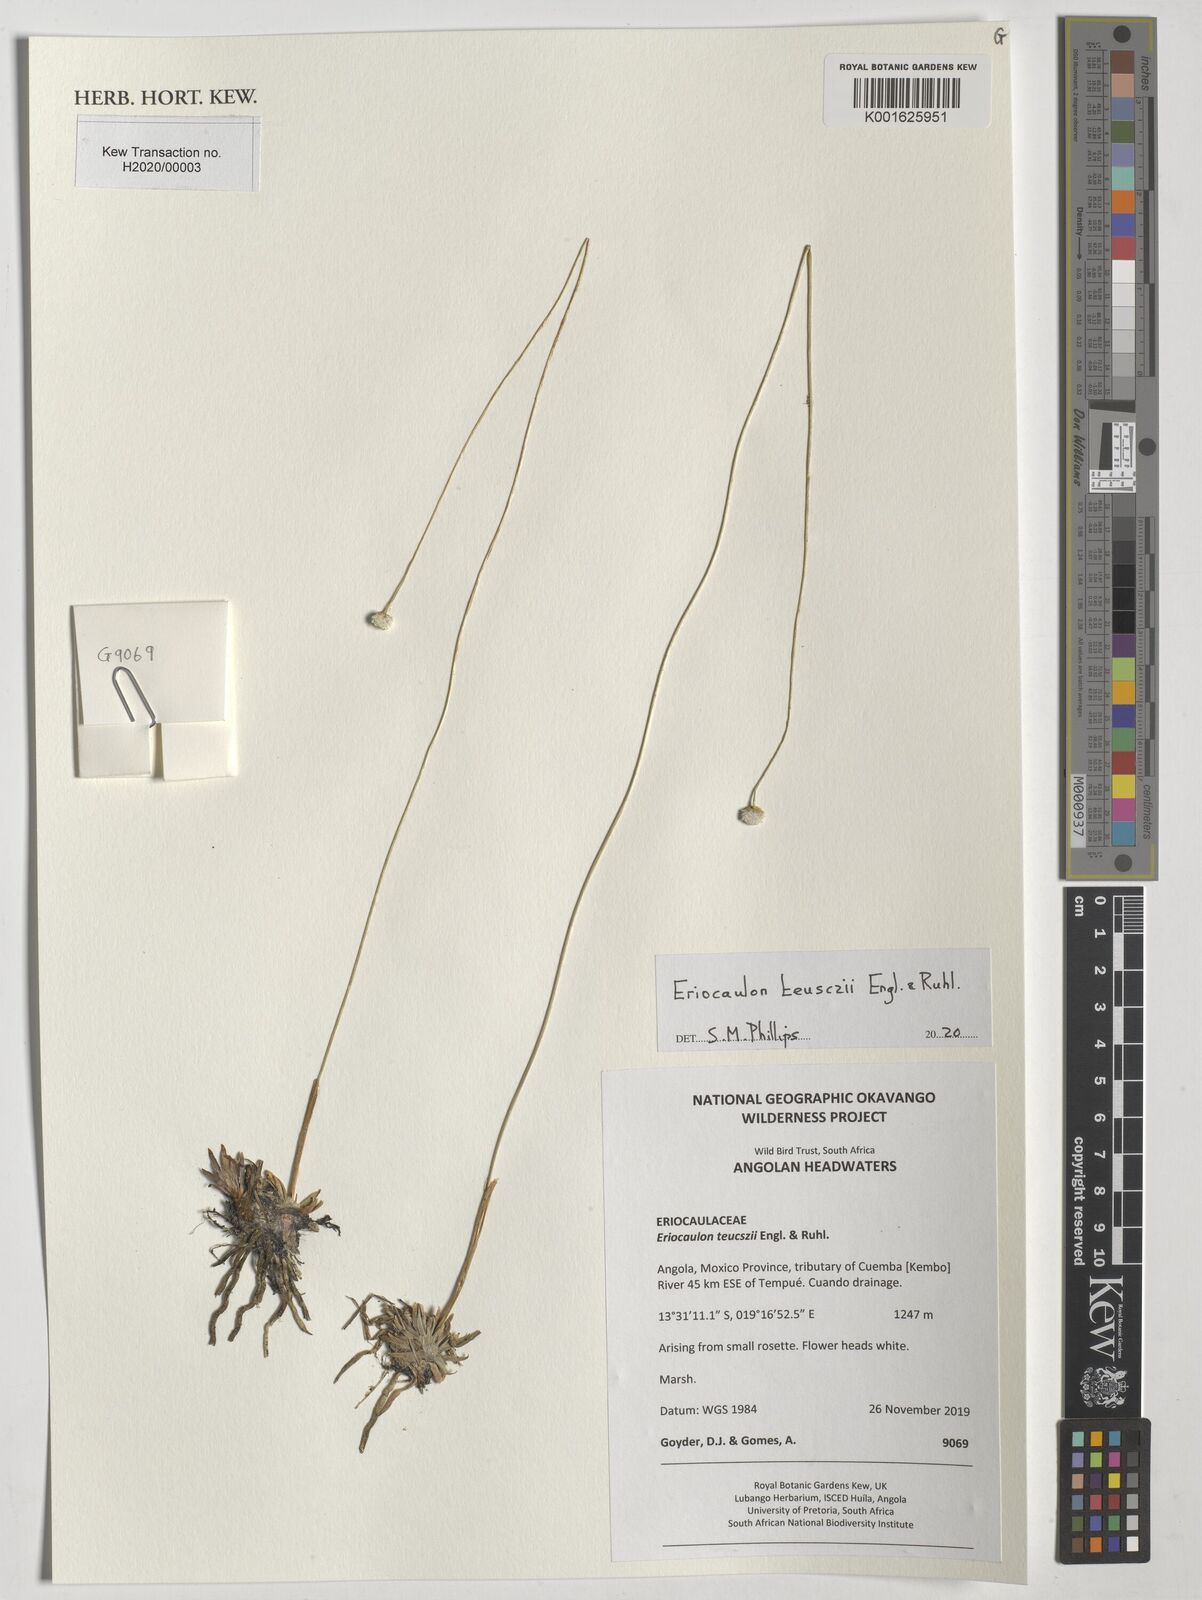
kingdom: Plantae
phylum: Tracheophyta
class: Liliopsida
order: Poales
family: Eriocaulaceae
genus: Eriocaulon
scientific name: Eriocaulon teusczii
